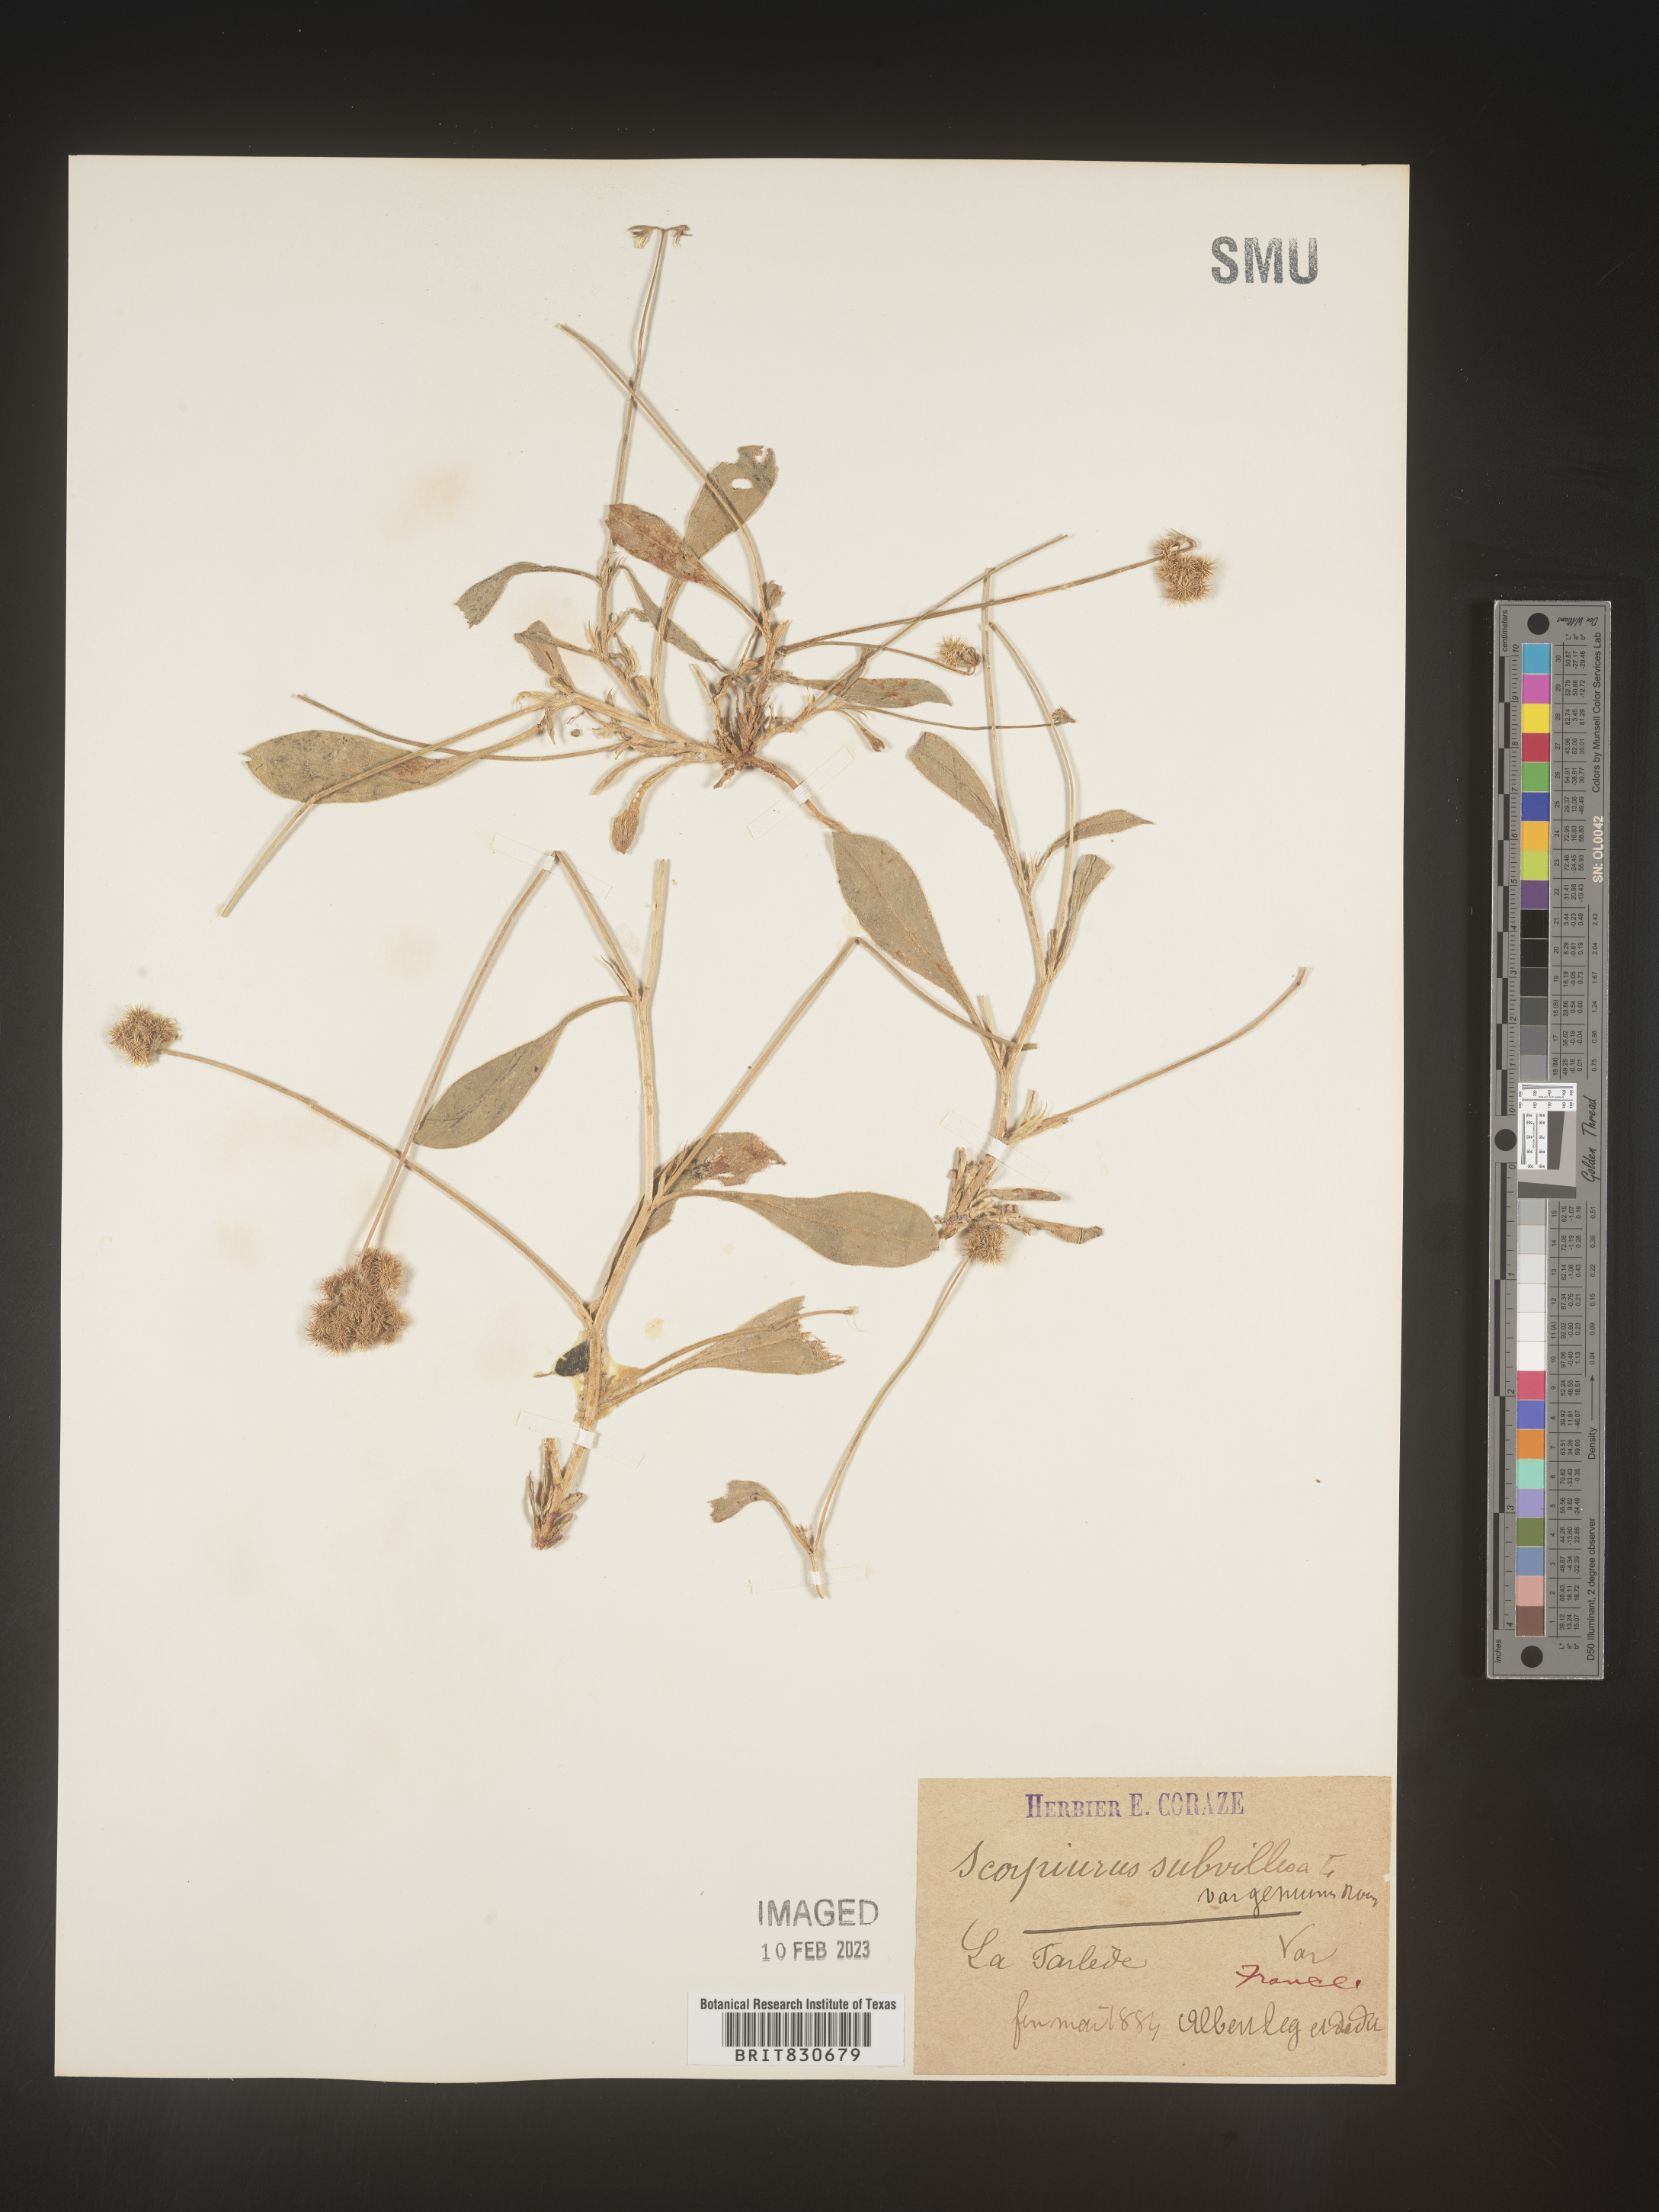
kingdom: Plantae
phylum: Tracheophyta
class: Magnoliopsida
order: Fabales
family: Fabaceae
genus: Scorpiurus
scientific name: Scorpiurus
